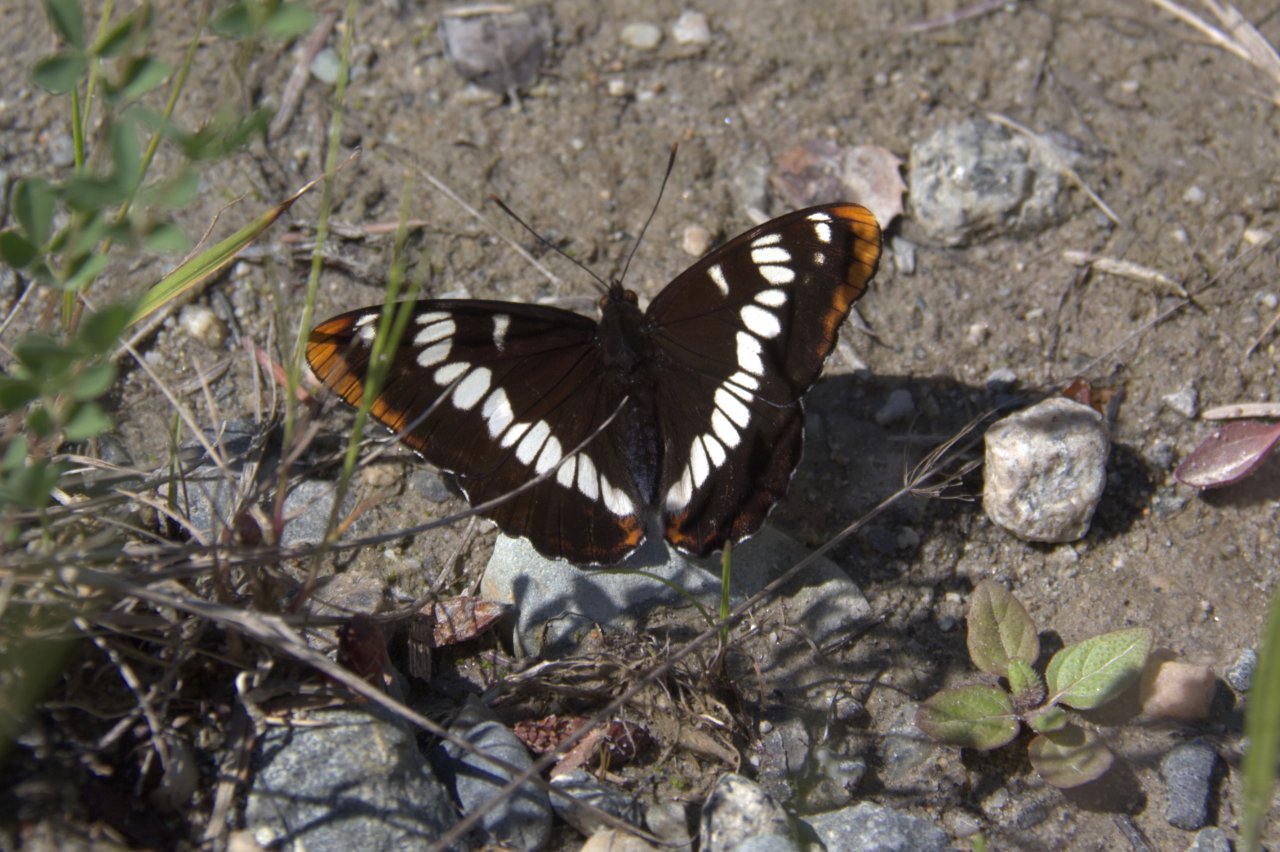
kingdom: Animalia
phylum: Arthropoda
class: Insecta
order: Lepidoptera
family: Nymphalidae
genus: Limenitis
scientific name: Limenitis lorquini
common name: Lorquin's Admiral
